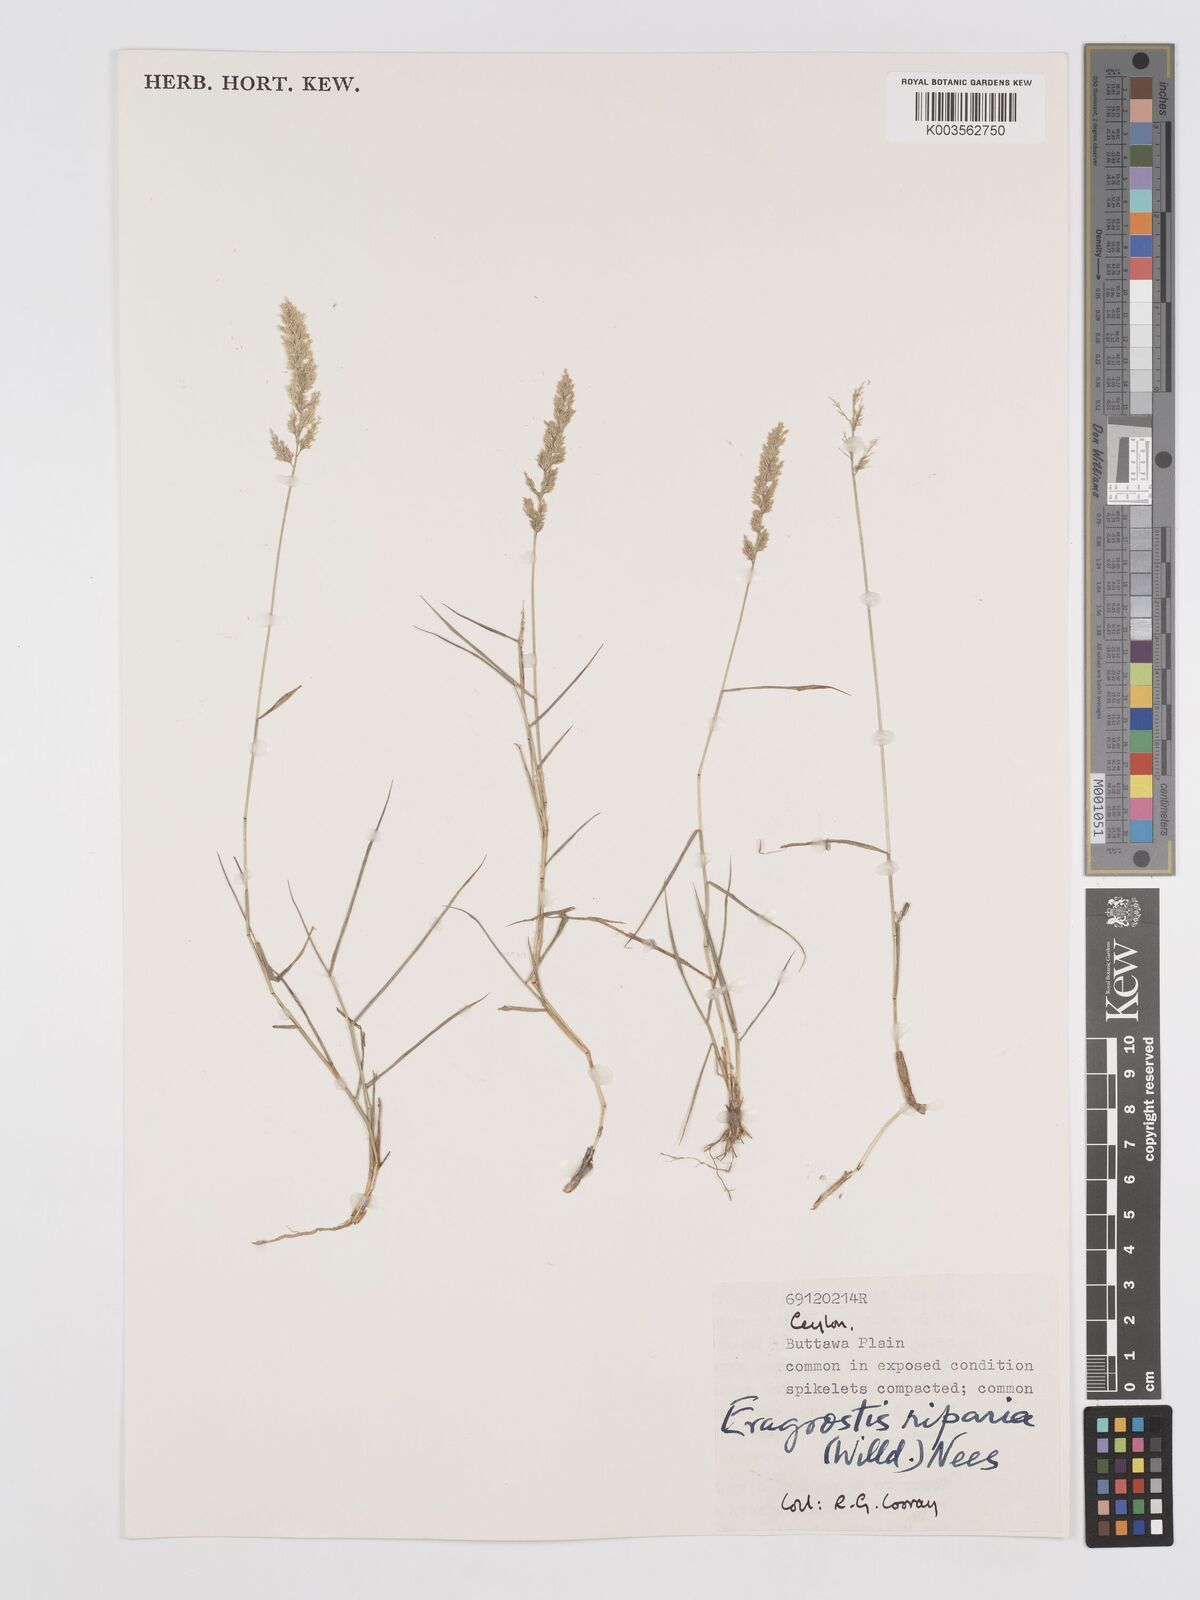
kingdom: Plantae
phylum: Tracheophyta
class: Liliopsida
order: Poales
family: Poaceae
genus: Eragrostis
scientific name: Eragrostis riparia
